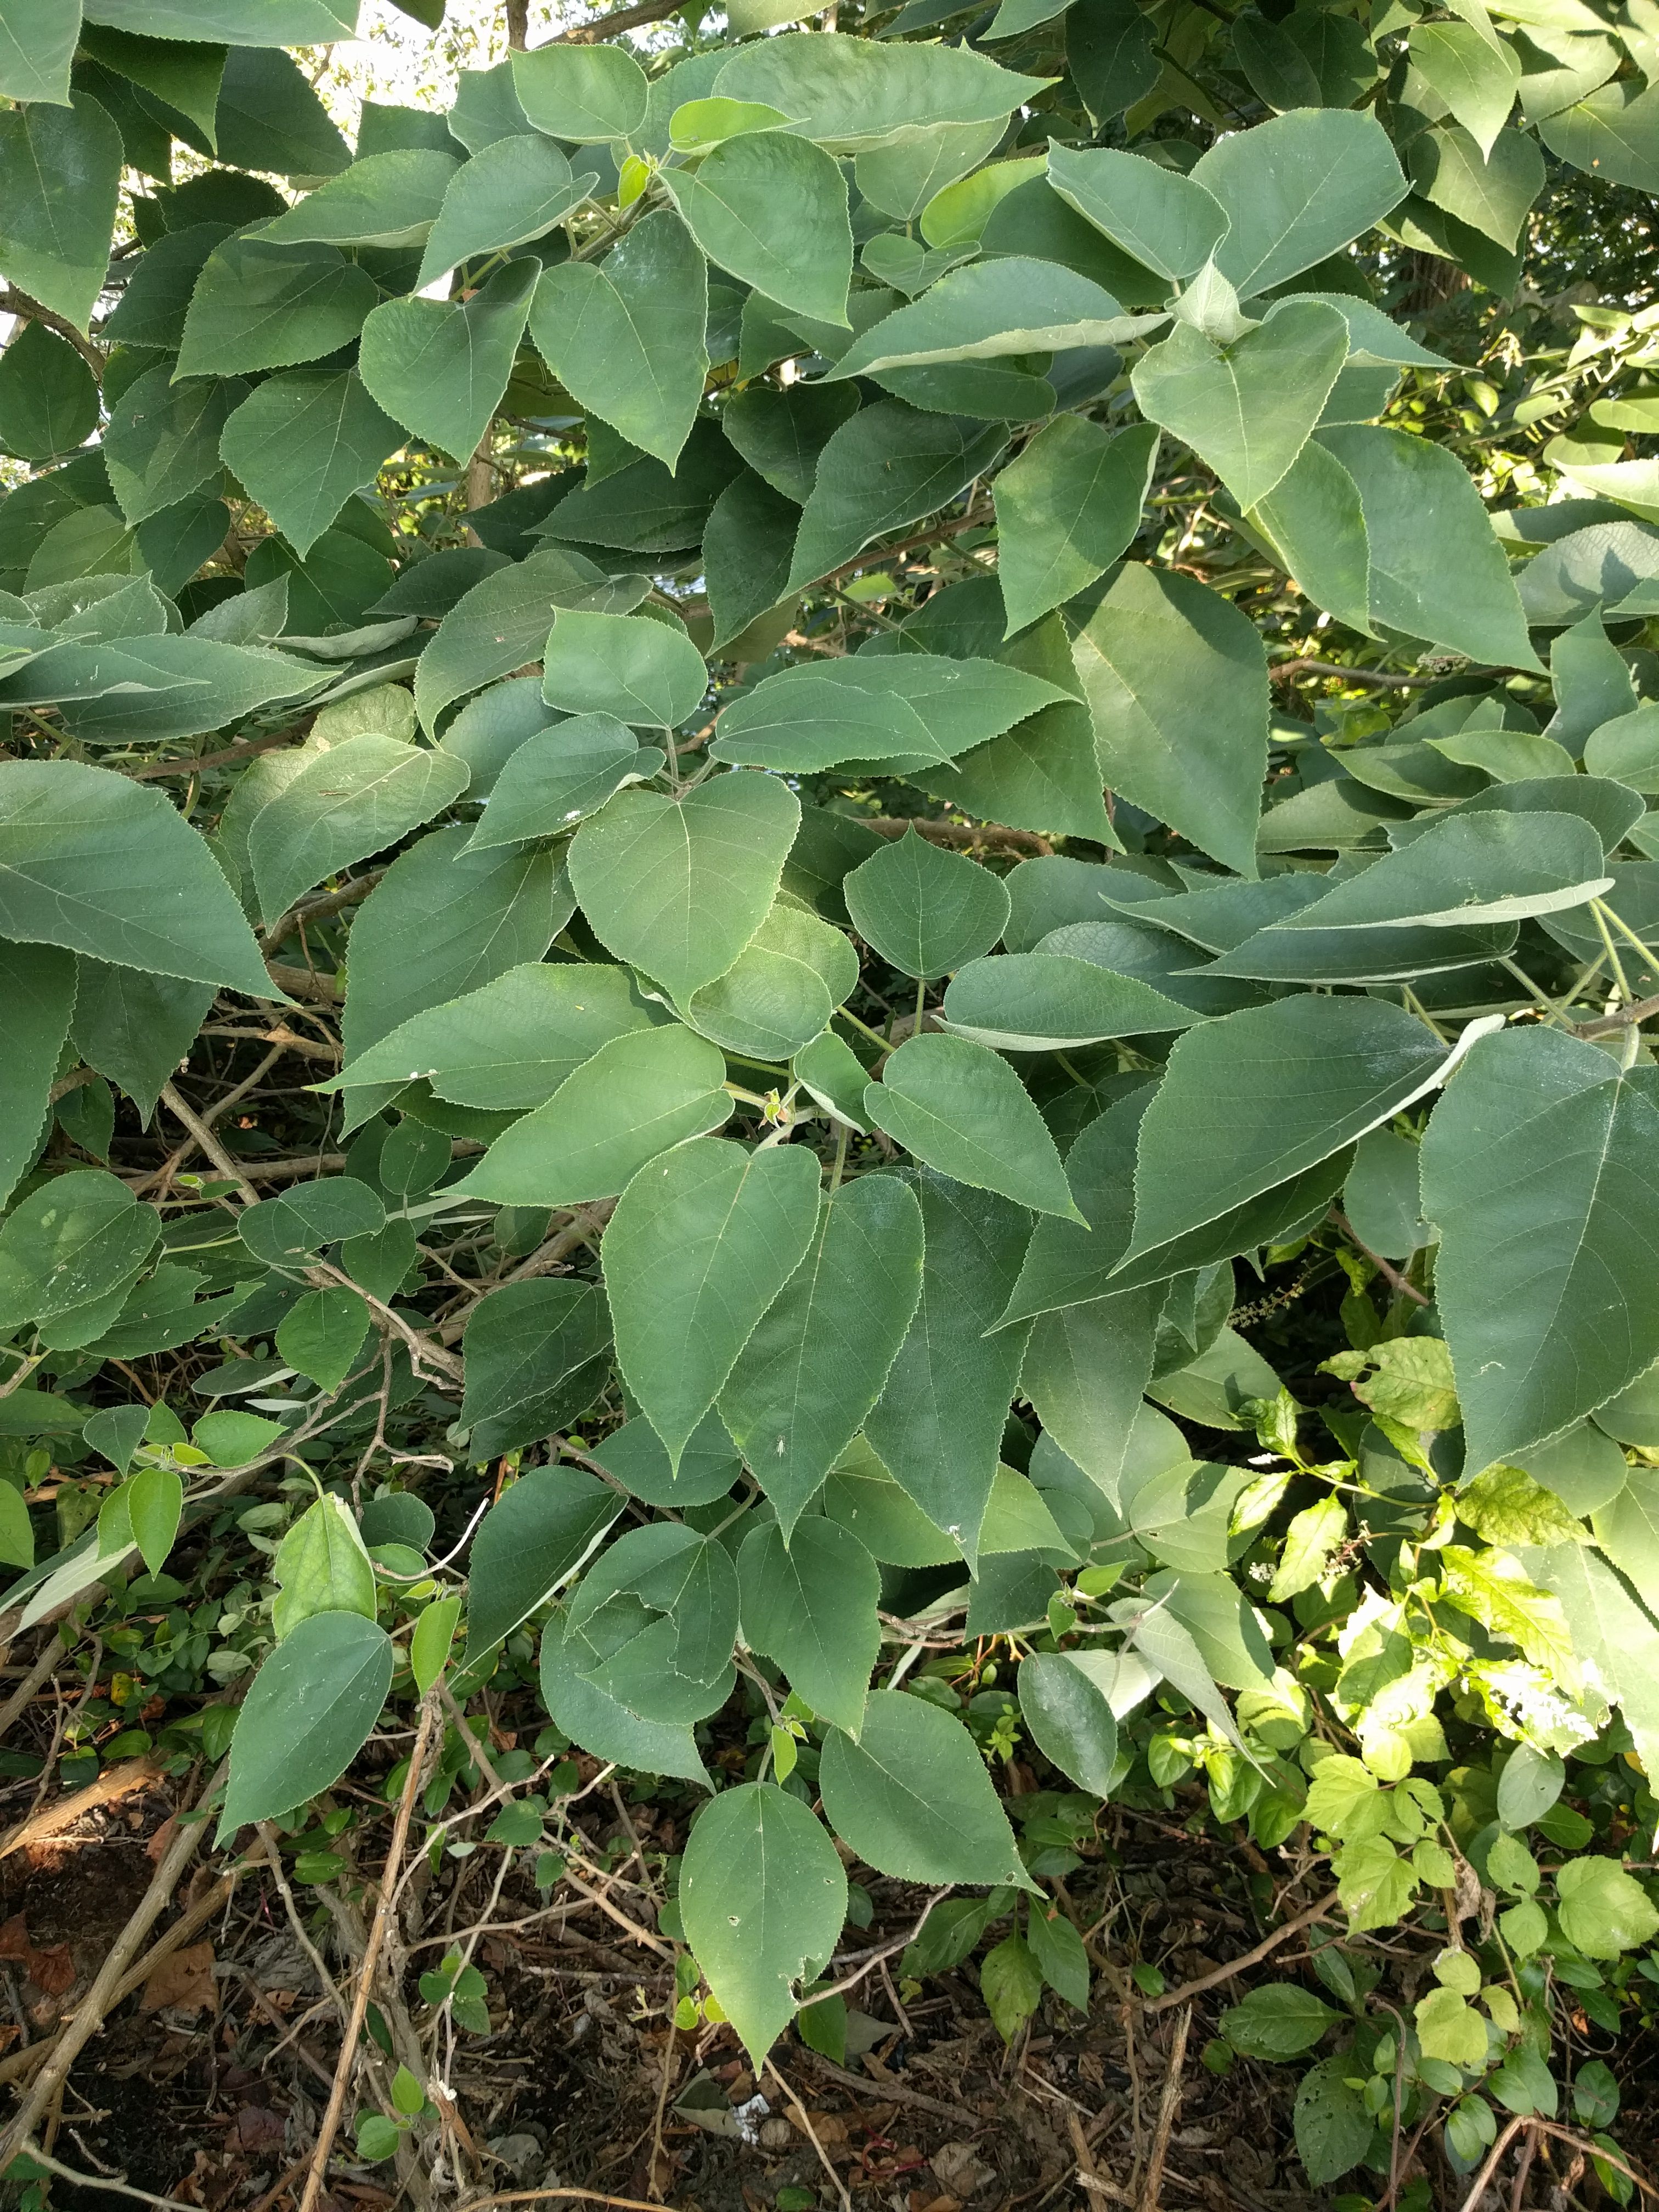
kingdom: Plantae
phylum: Tracheophyta
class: Magnoliopsida
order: Rosales
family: Moraceae
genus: Broussonetia
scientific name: Broussonetia papyrifera
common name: Paper mulberry
